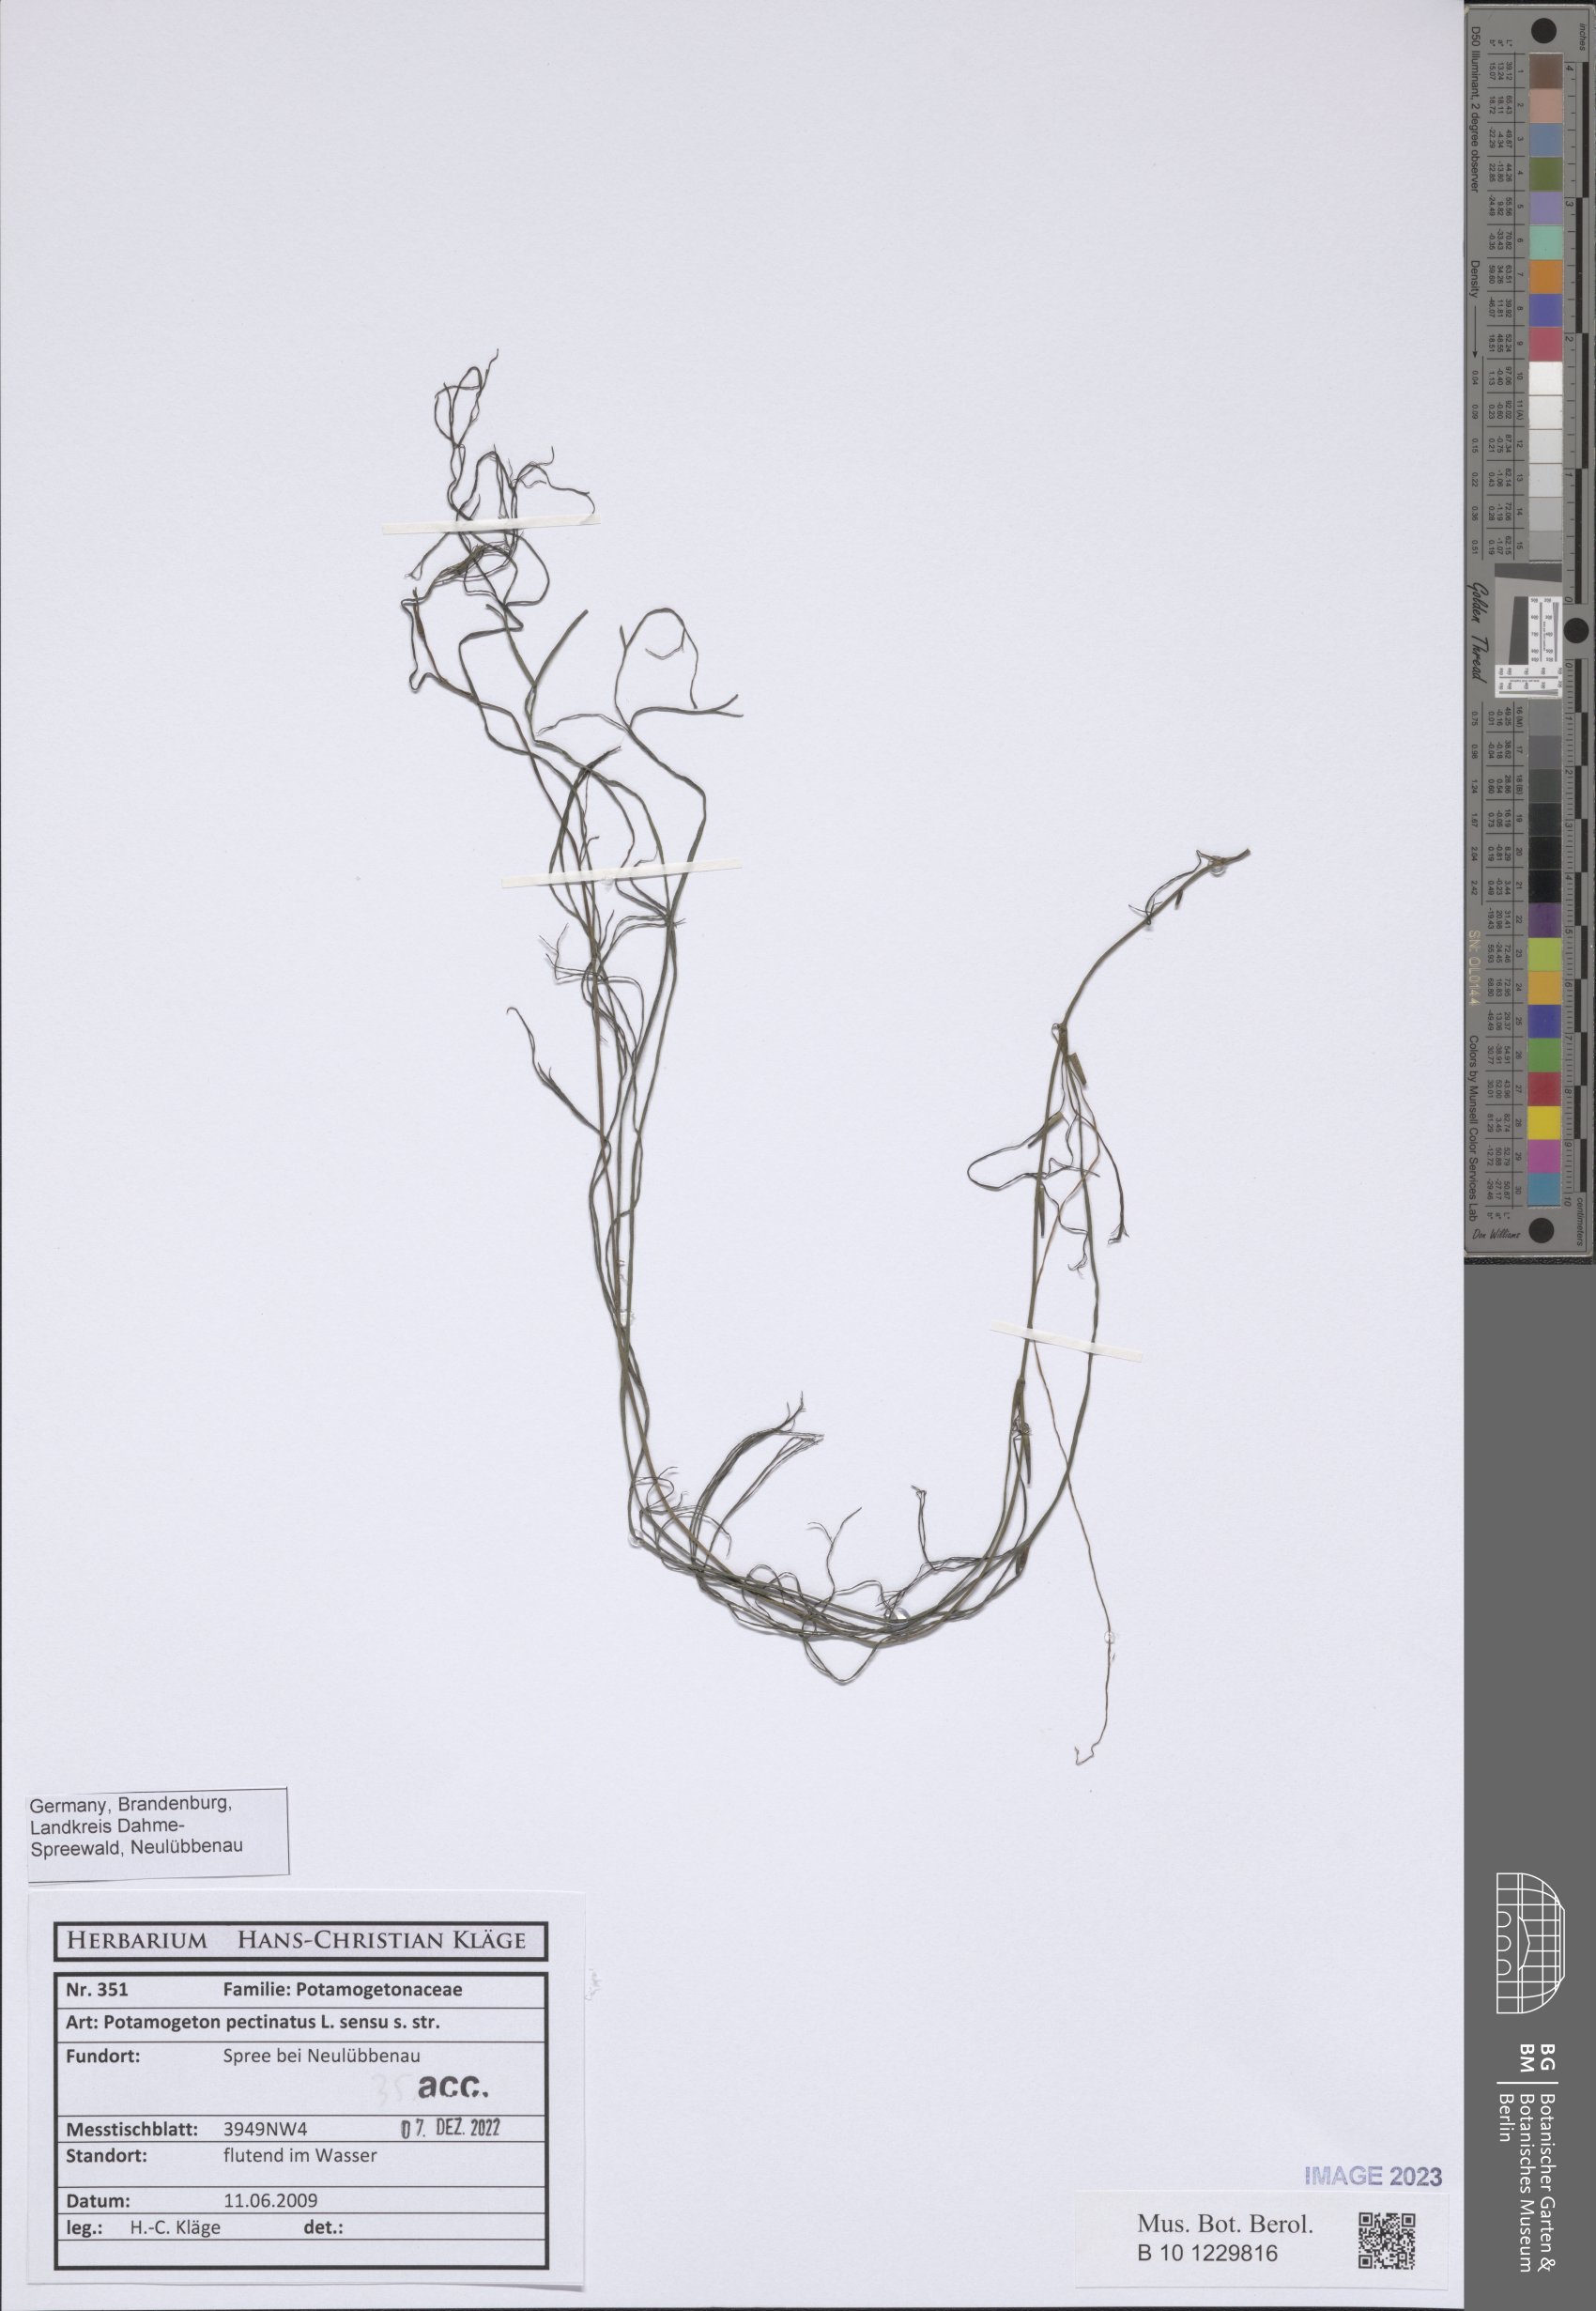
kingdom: Plantae
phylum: Tracheophyta
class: Liliopsida
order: Alismatales
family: Potamogetonaceae
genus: Stuckenia
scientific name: Stuckenia pectinata
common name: Sago pondweed
